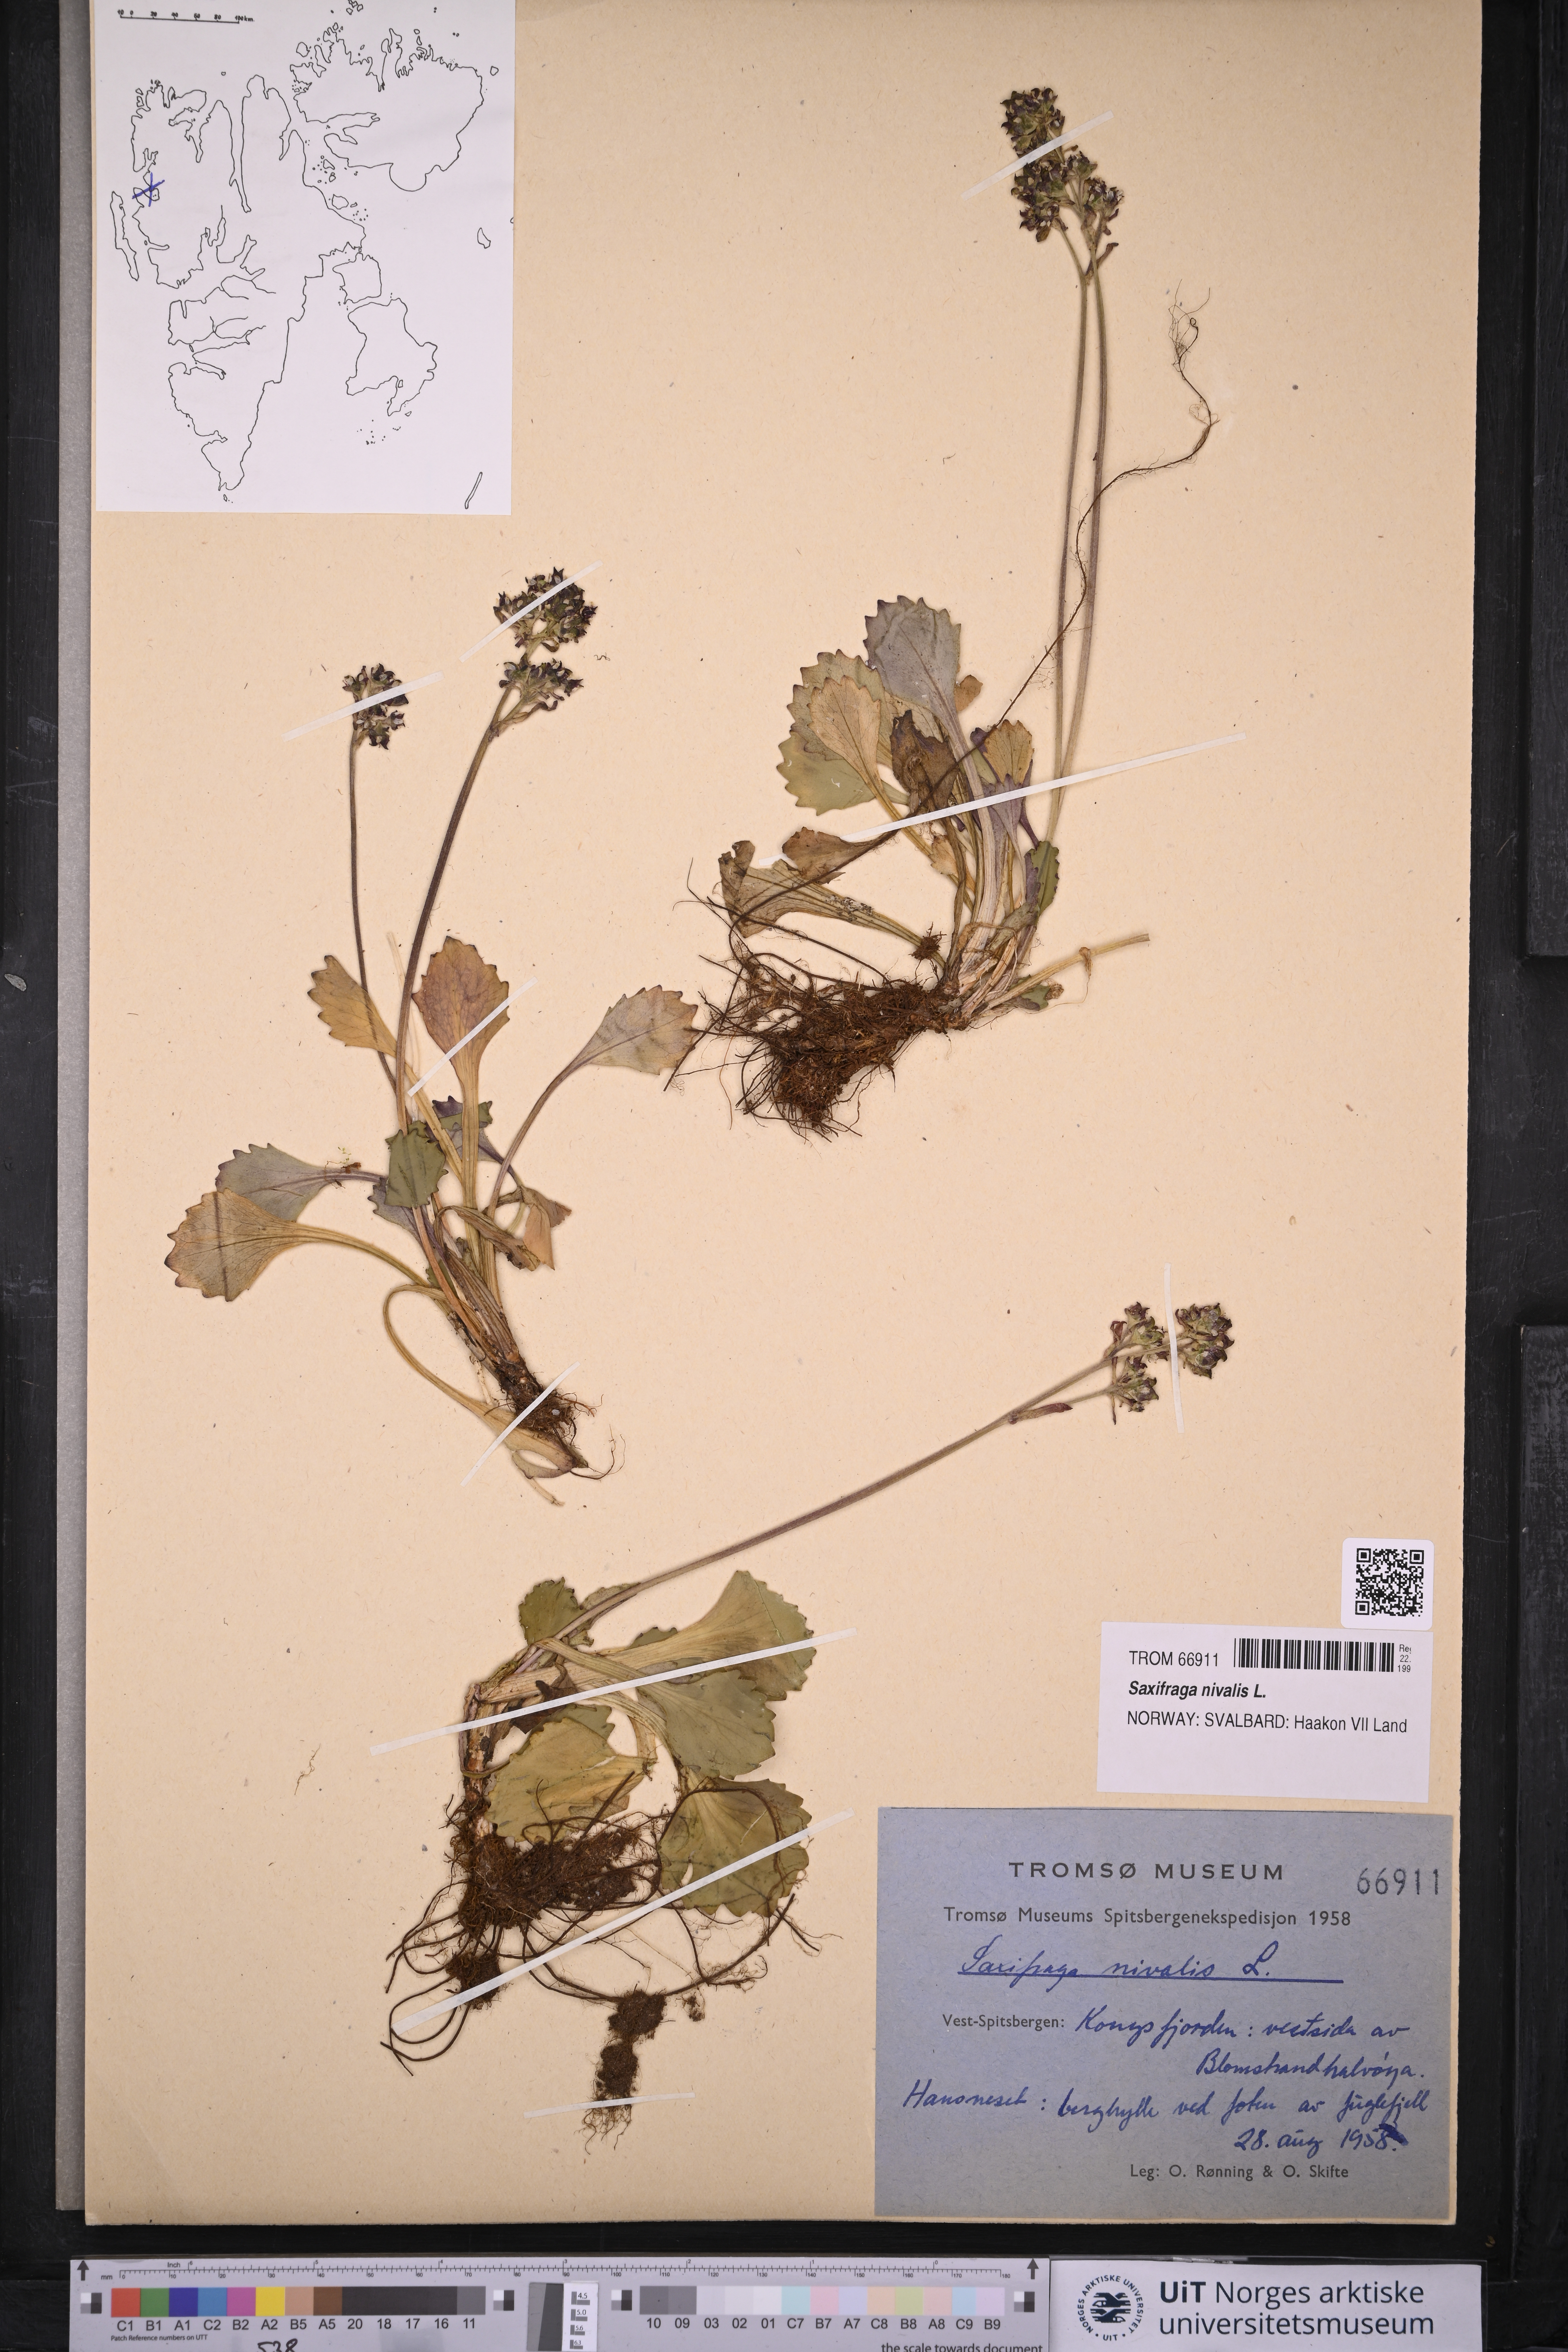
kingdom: Plantae
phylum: Tracheophyta
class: Magnoliopsida
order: Saxifragales
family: Saxifragaceae
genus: Micranthes
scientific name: Micranthes nivalis
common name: Alpine saxifrage
